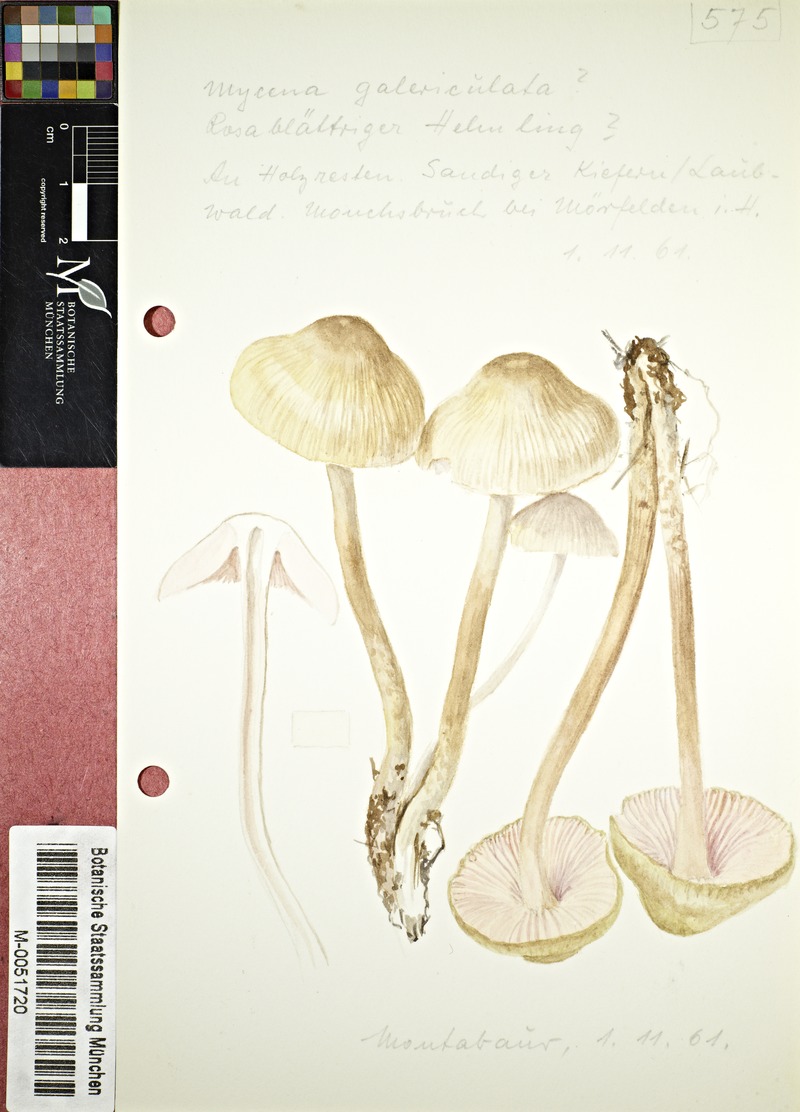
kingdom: Fungi
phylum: Basidiomycota
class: Agaricomycetes
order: Agaricales
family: Mycenaceae
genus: Mycena
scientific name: Mycena galericulata
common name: Bonnet mycena
